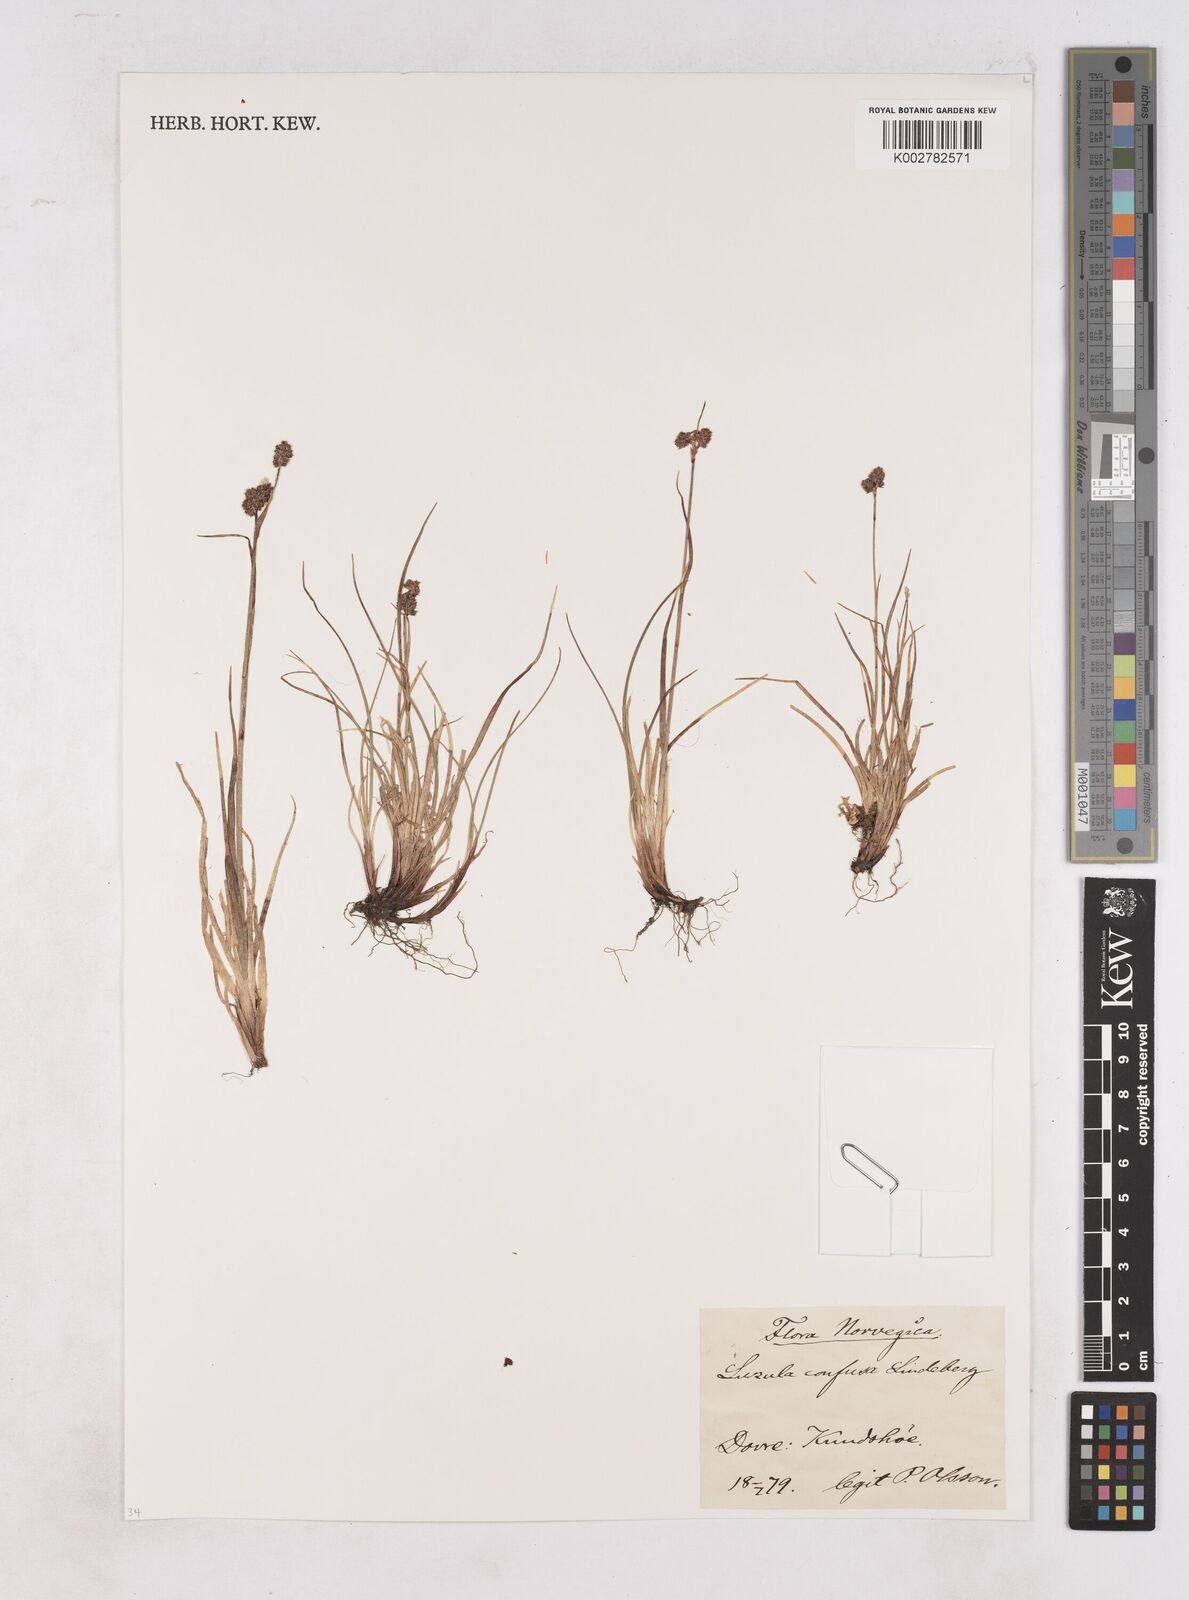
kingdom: Plantae
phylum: Tracheophyta
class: Liliopsida
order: Poales
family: Juncaceae
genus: Luzula
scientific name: Luzula confusa
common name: Northern wood rush
